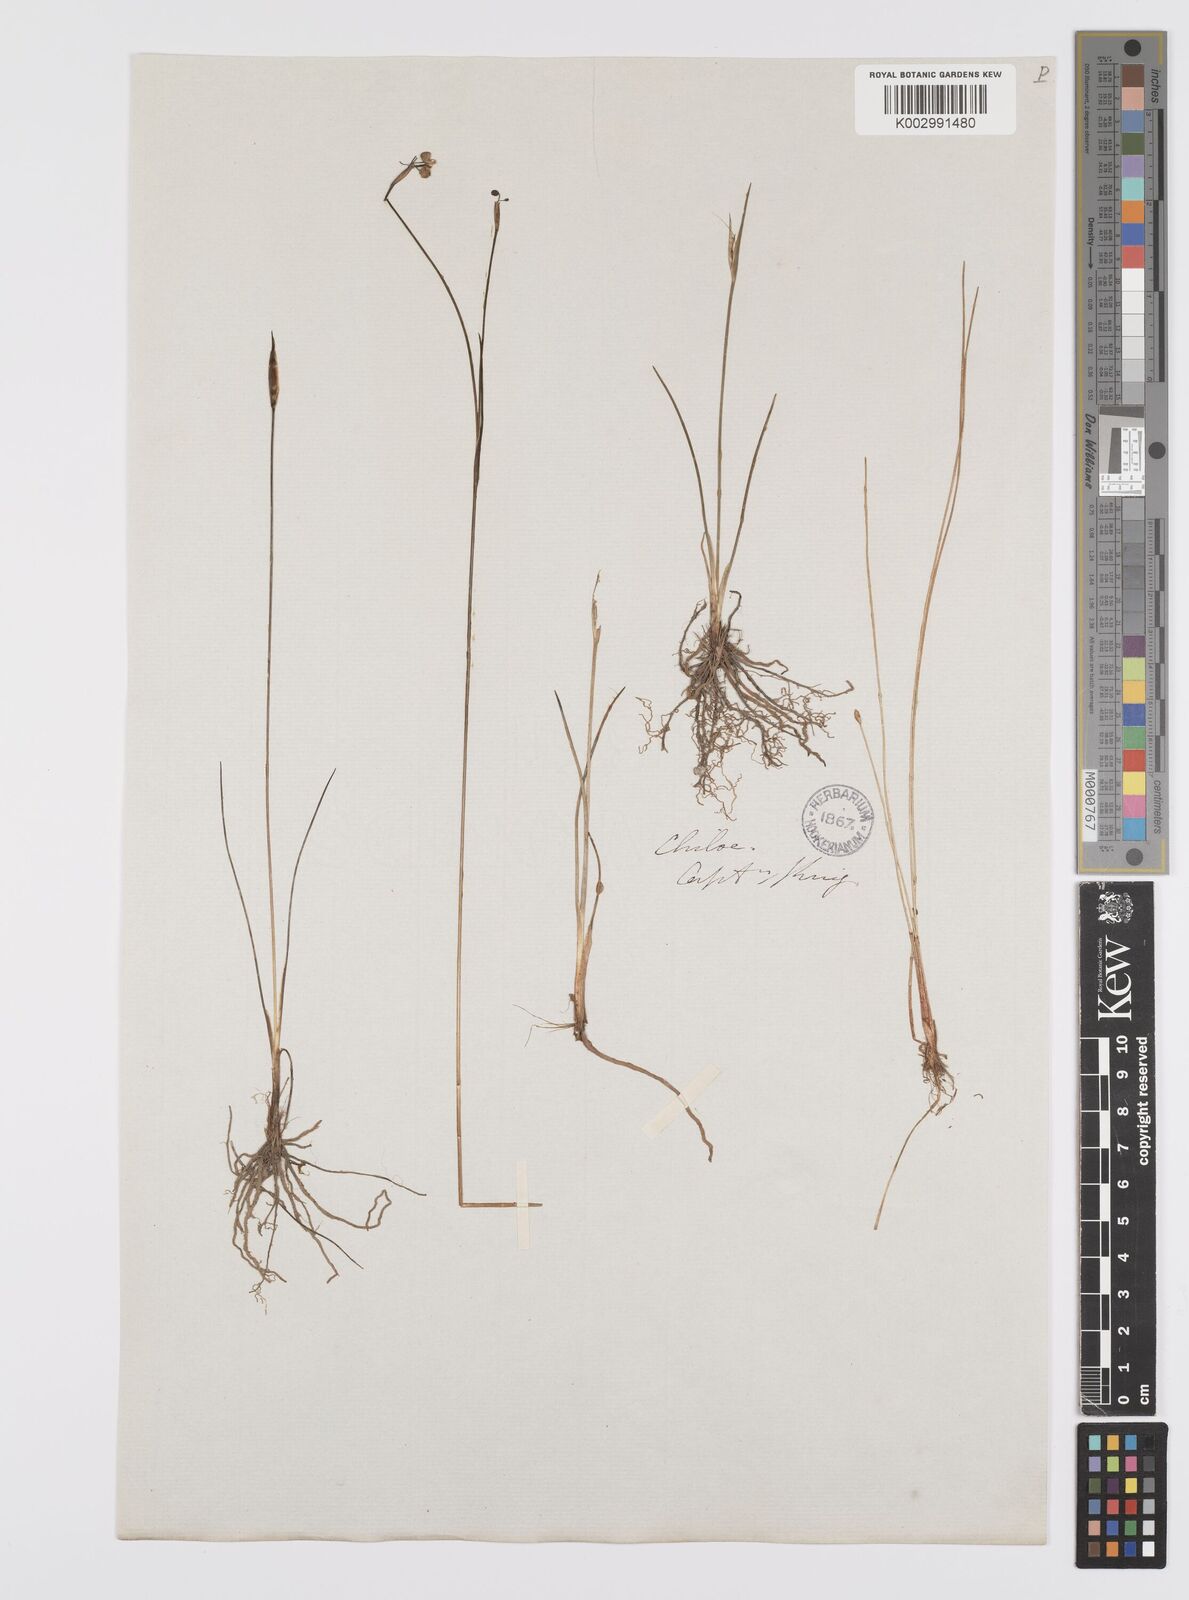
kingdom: Plantae
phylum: Tracheophyta
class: Liliopsida
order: Asparagales
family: Iridaceae
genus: Olsynium
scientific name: Olsynium junceum
